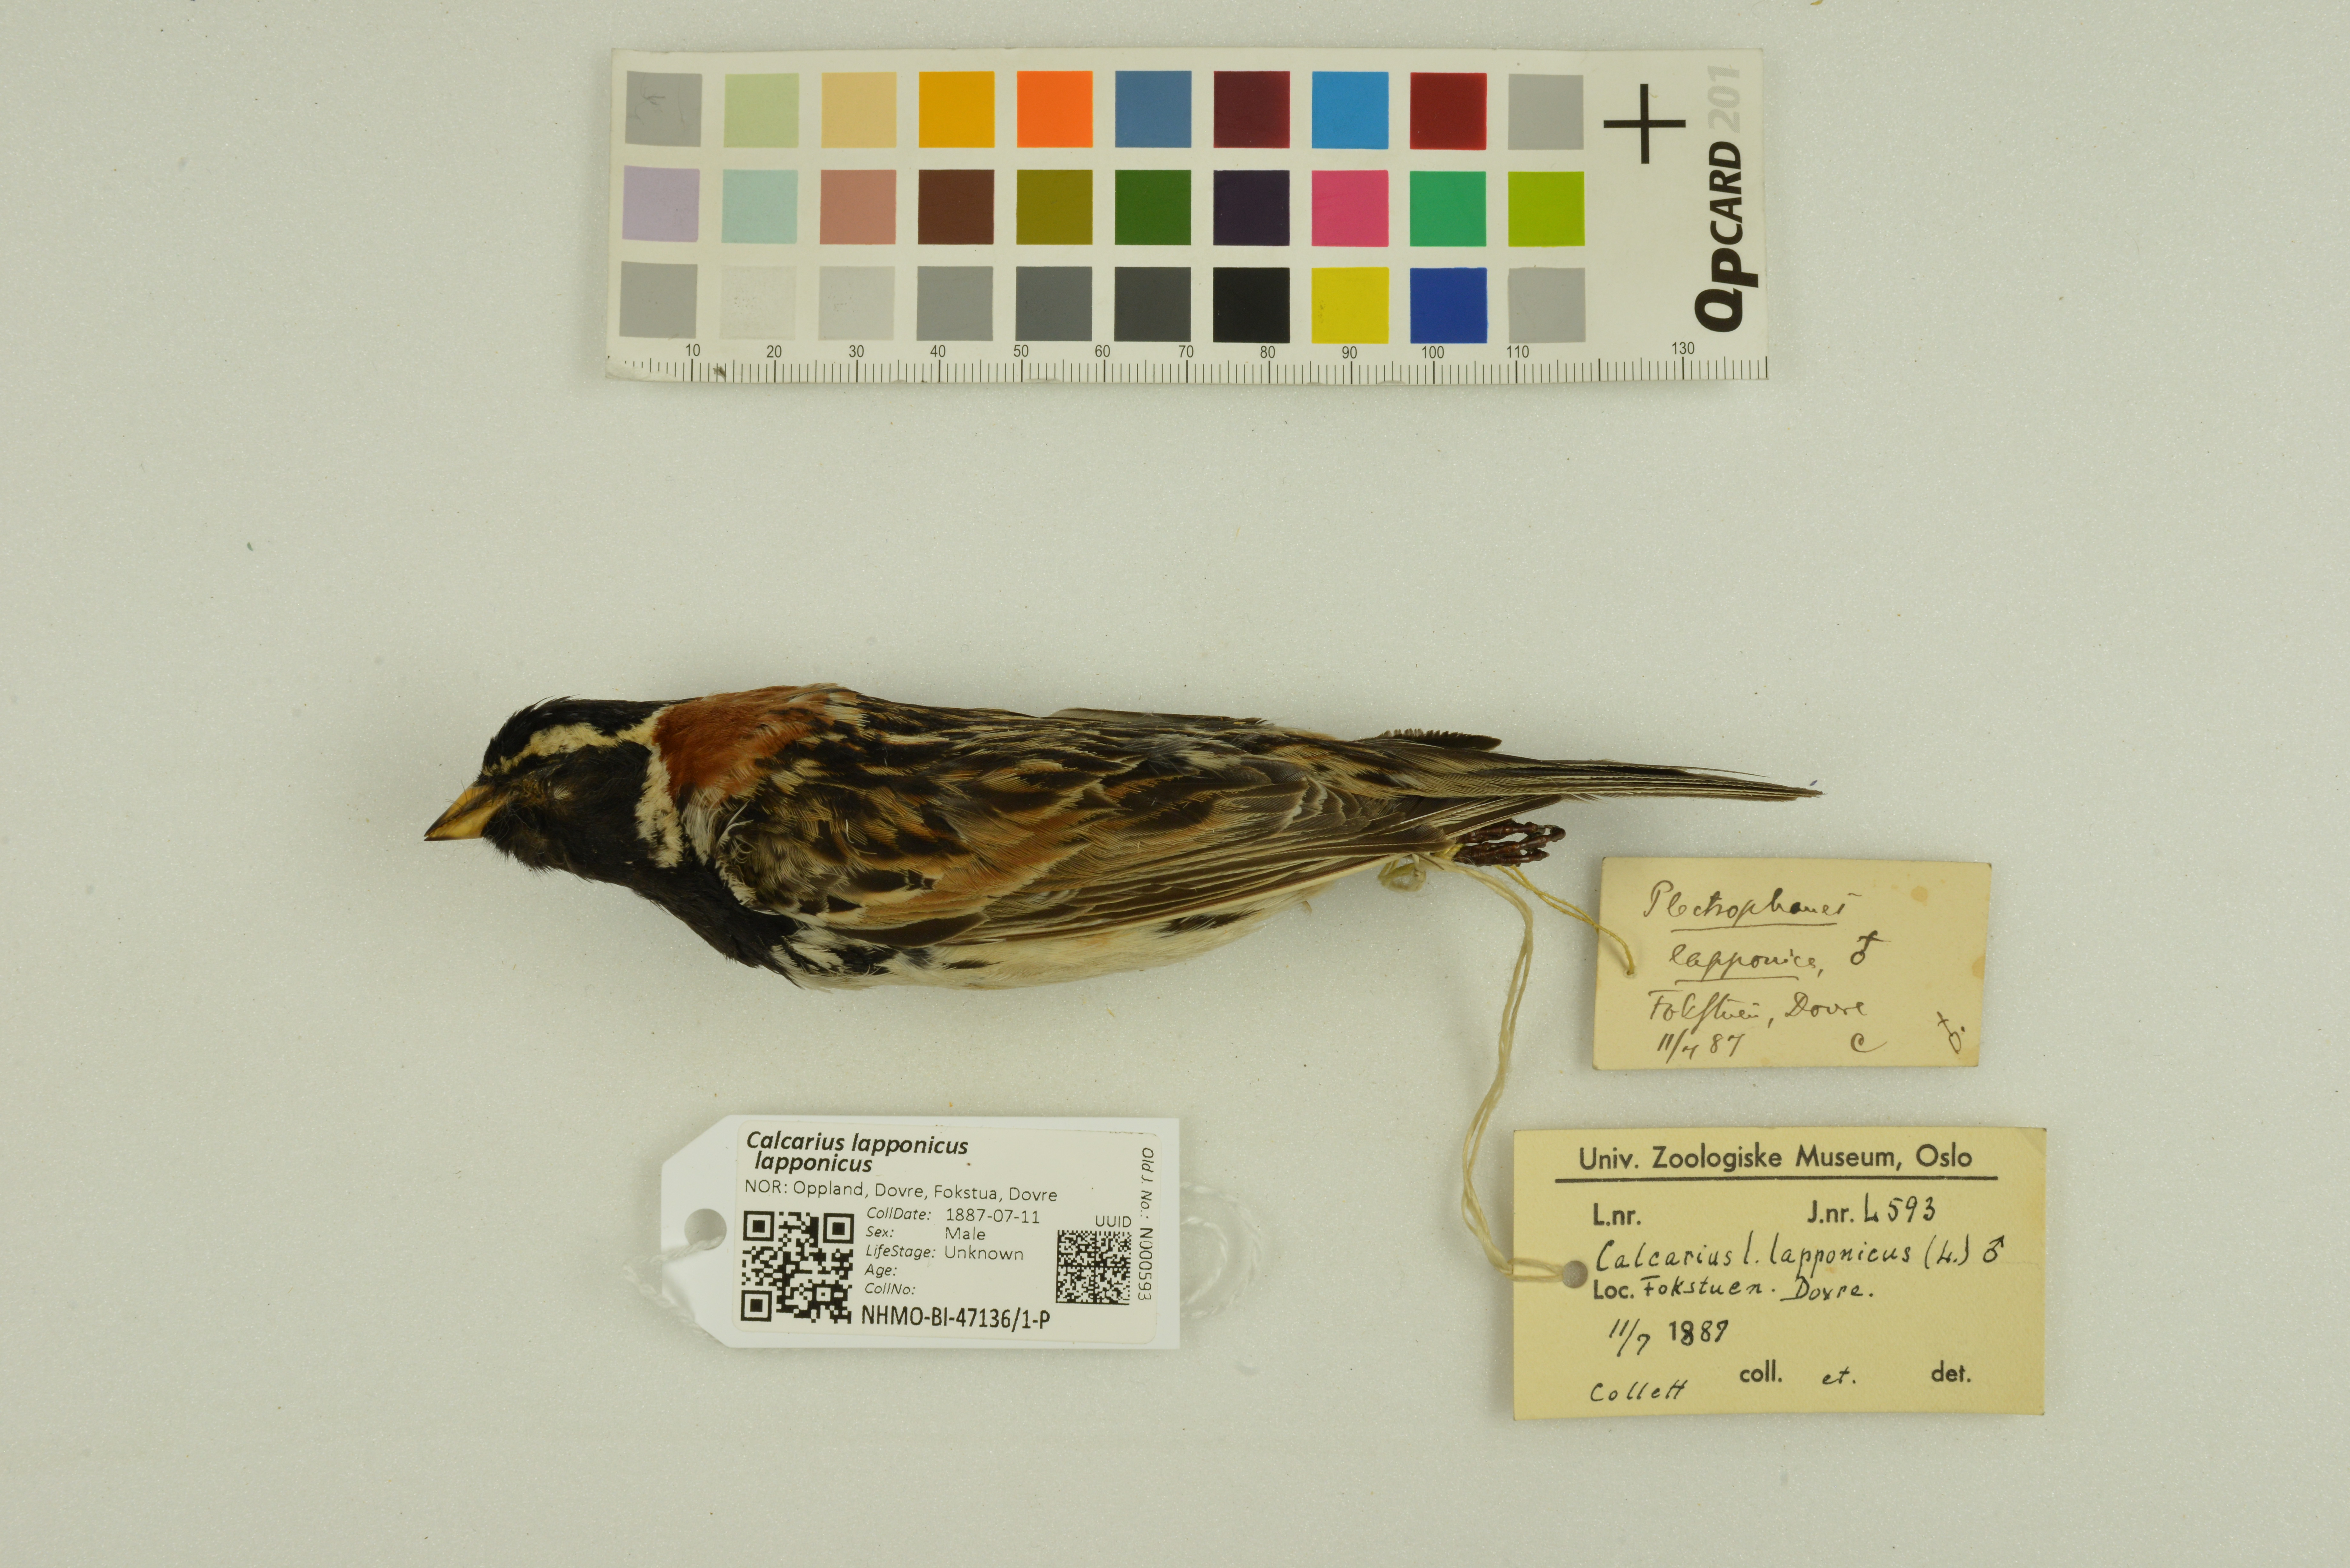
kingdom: Animalia
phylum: Chordata
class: Aves
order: Passeriformes
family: Calcariidae
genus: Calcarius
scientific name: Calcarius lapponicus
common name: Lapland longspur
